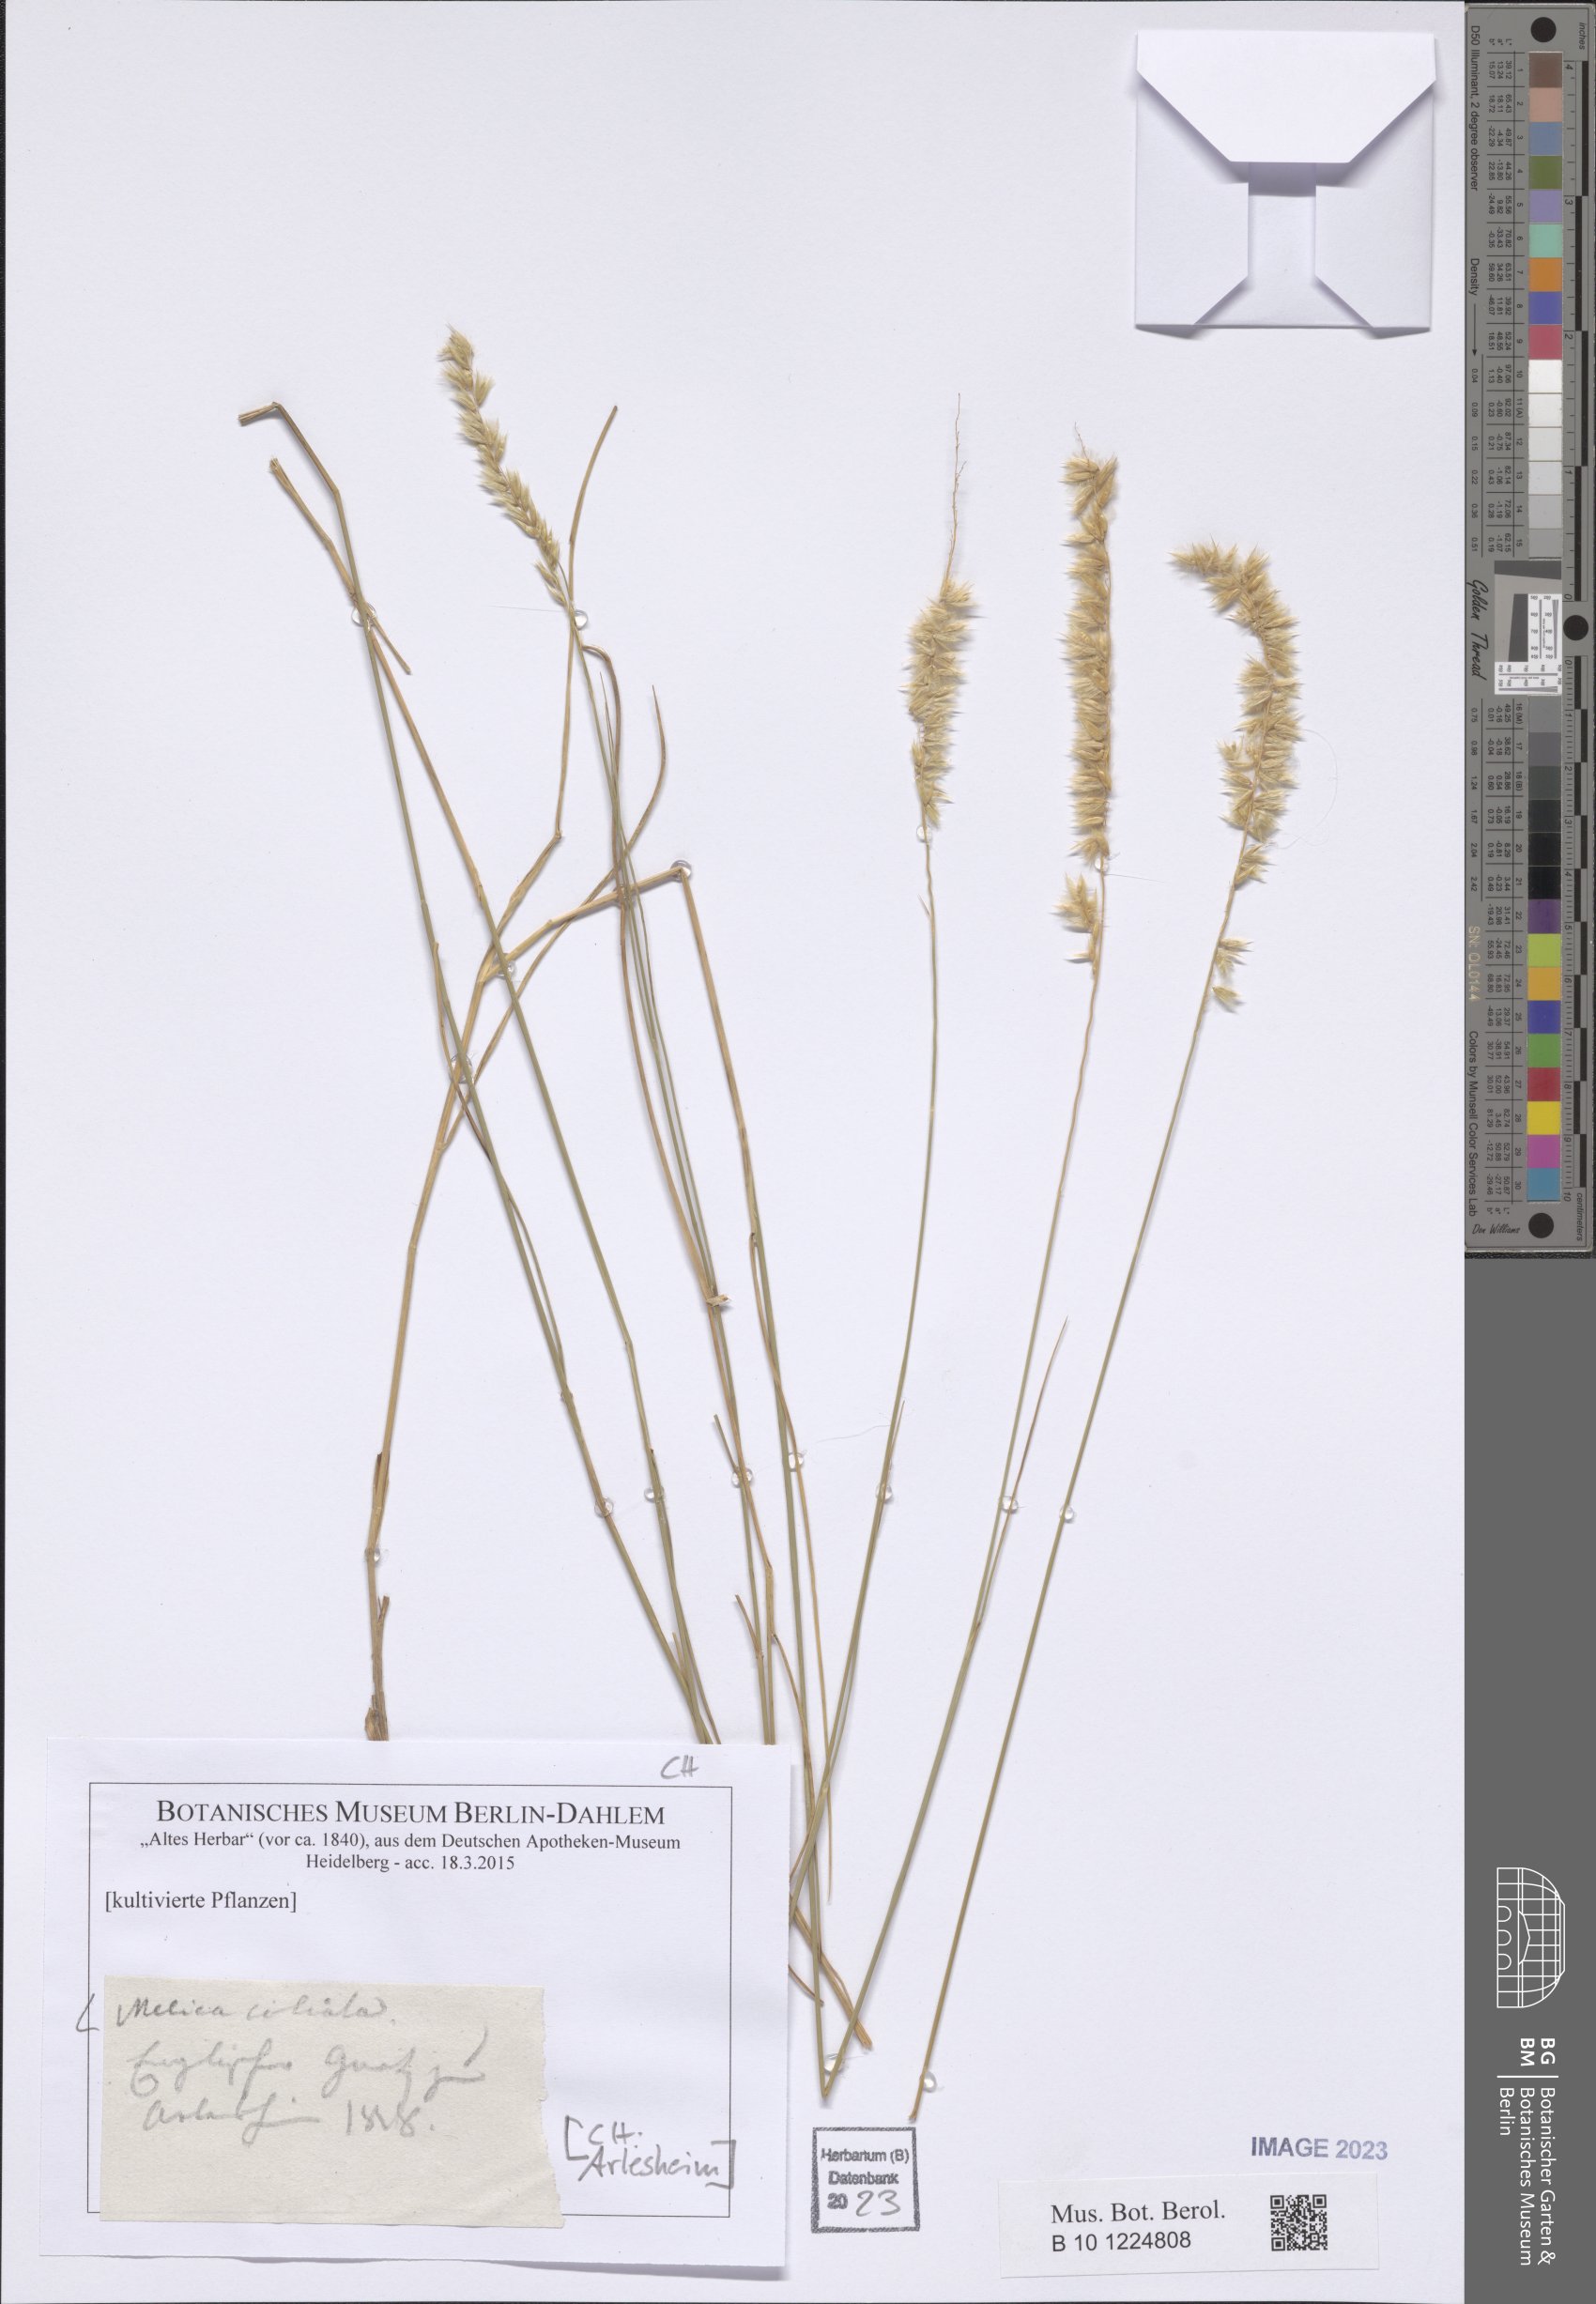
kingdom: Plantae
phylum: Tracheophyta
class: Liliopsida
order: Poales
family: Poaceae
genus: Melica
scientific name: Melica ciliata
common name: Hairy melicgrass
